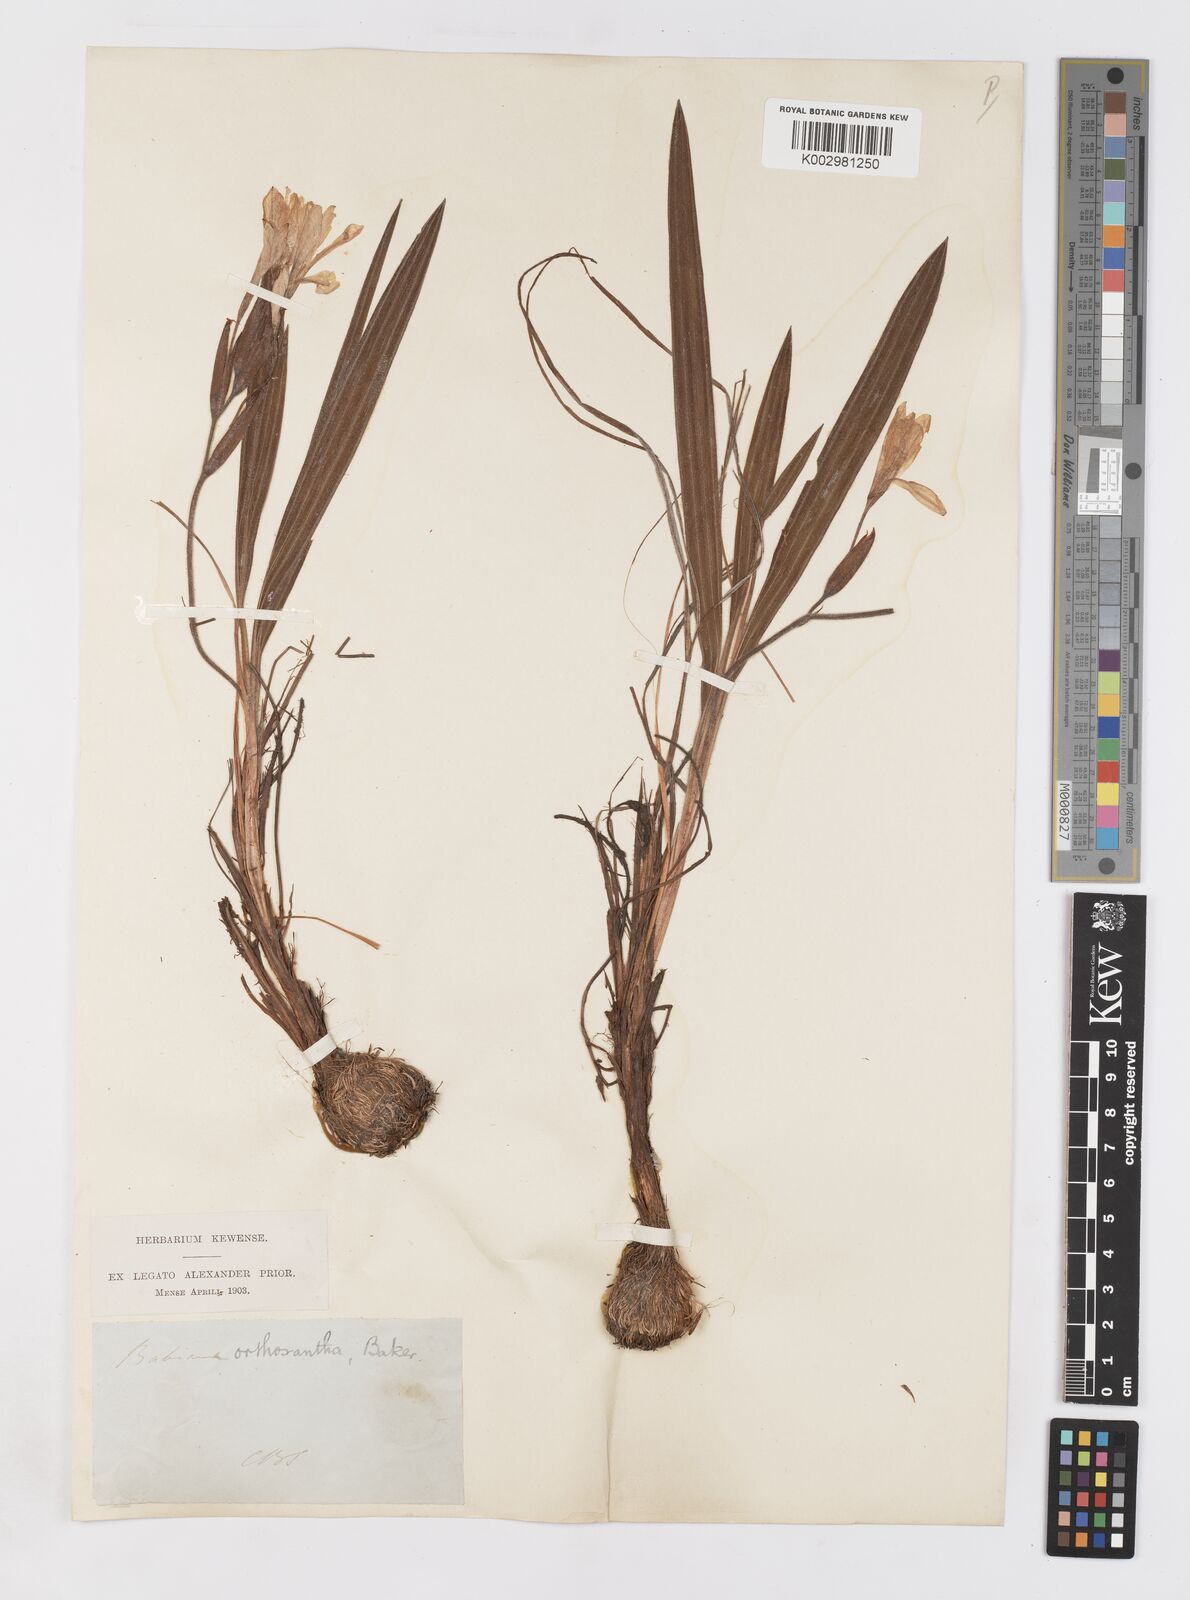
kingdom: Plantae
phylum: Tracheophyta
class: Liliopsida
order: Asparagales
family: Iridaceae
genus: Babiana
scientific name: Babiana villosula
